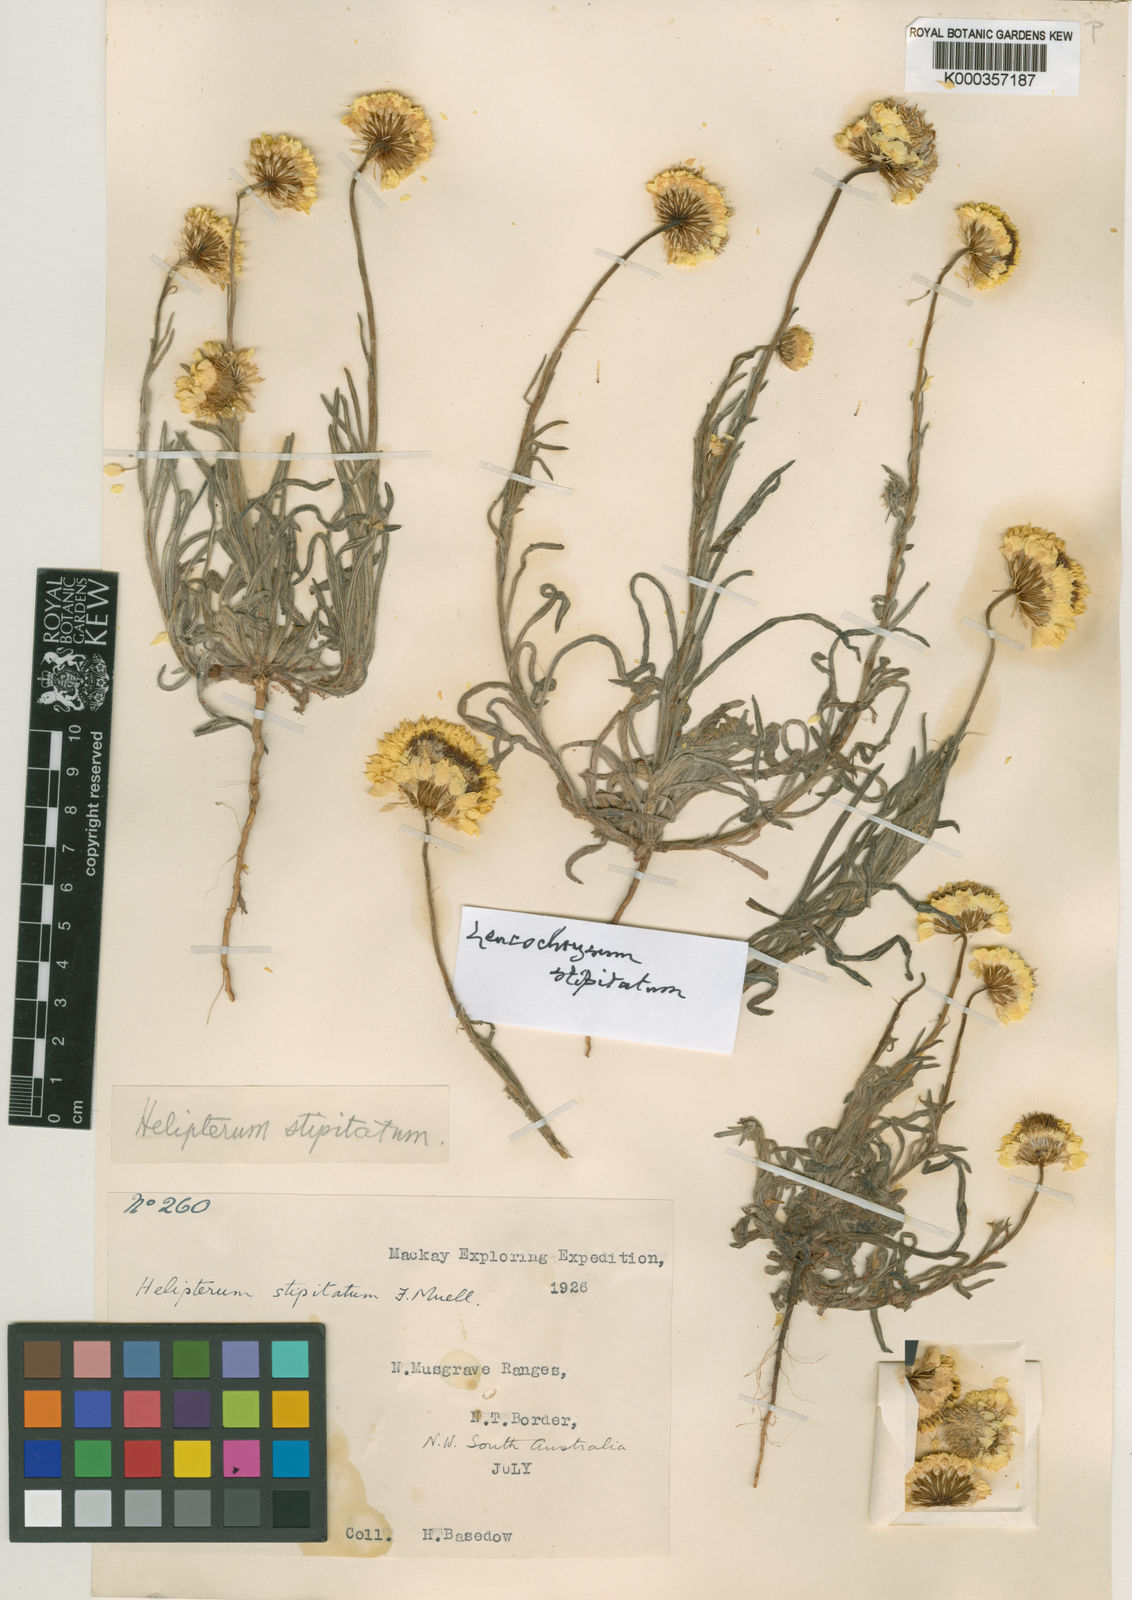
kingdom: Plantae
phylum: Tracheophyta
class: Magnoliopsida
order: Asterales
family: Asteraceae
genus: Leucochrysum
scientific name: Leucochrysum stipitatum
